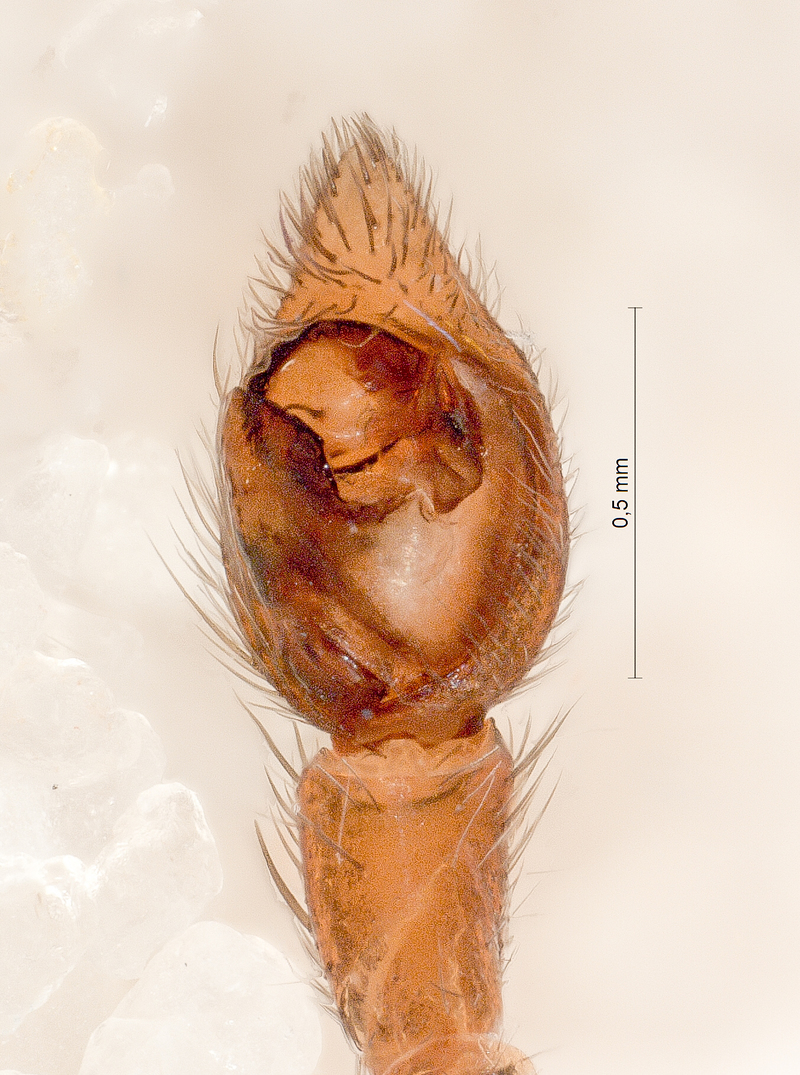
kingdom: Animalia
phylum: Arthropoda
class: Arachnida
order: Araneae
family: Lycosidae
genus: Xerolycosa
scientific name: Xerolycosa nemoralis
